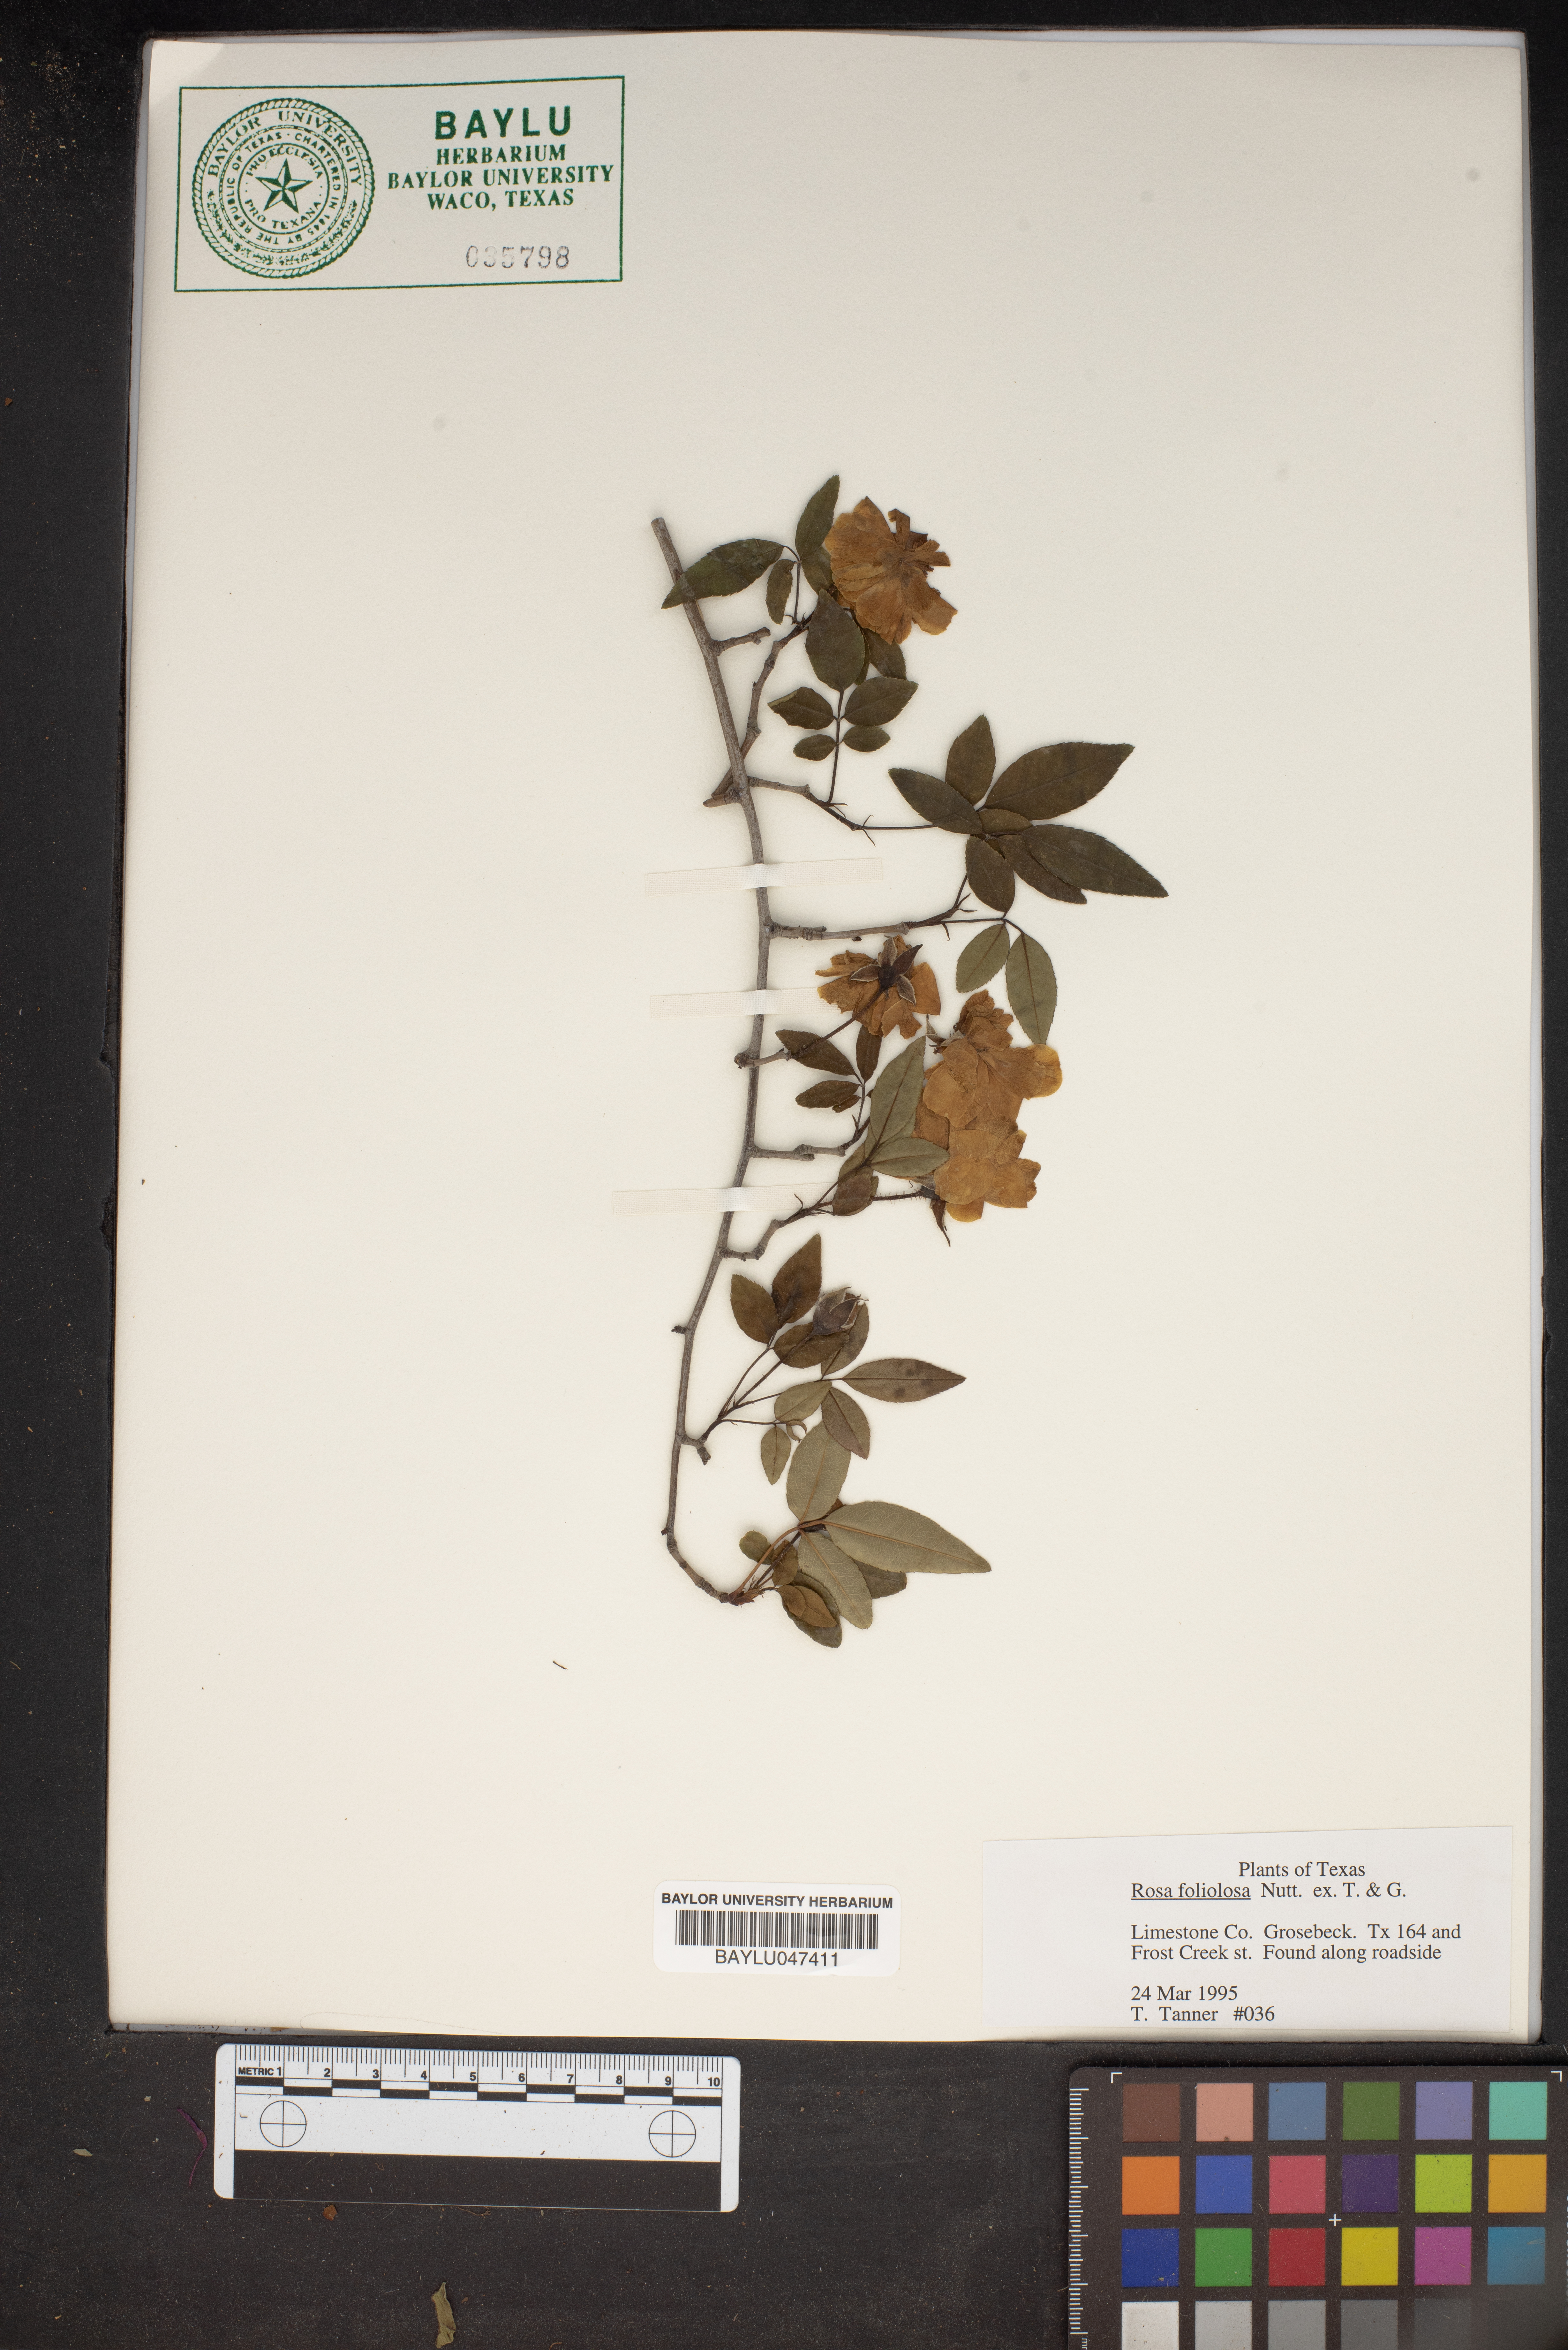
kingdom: Plantae
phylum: Tracheophyta
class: Magnoliopsida
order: Rosales
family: Rosaceae
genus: Rosa
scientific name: Rosa foliolosa
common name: White prairie rose
